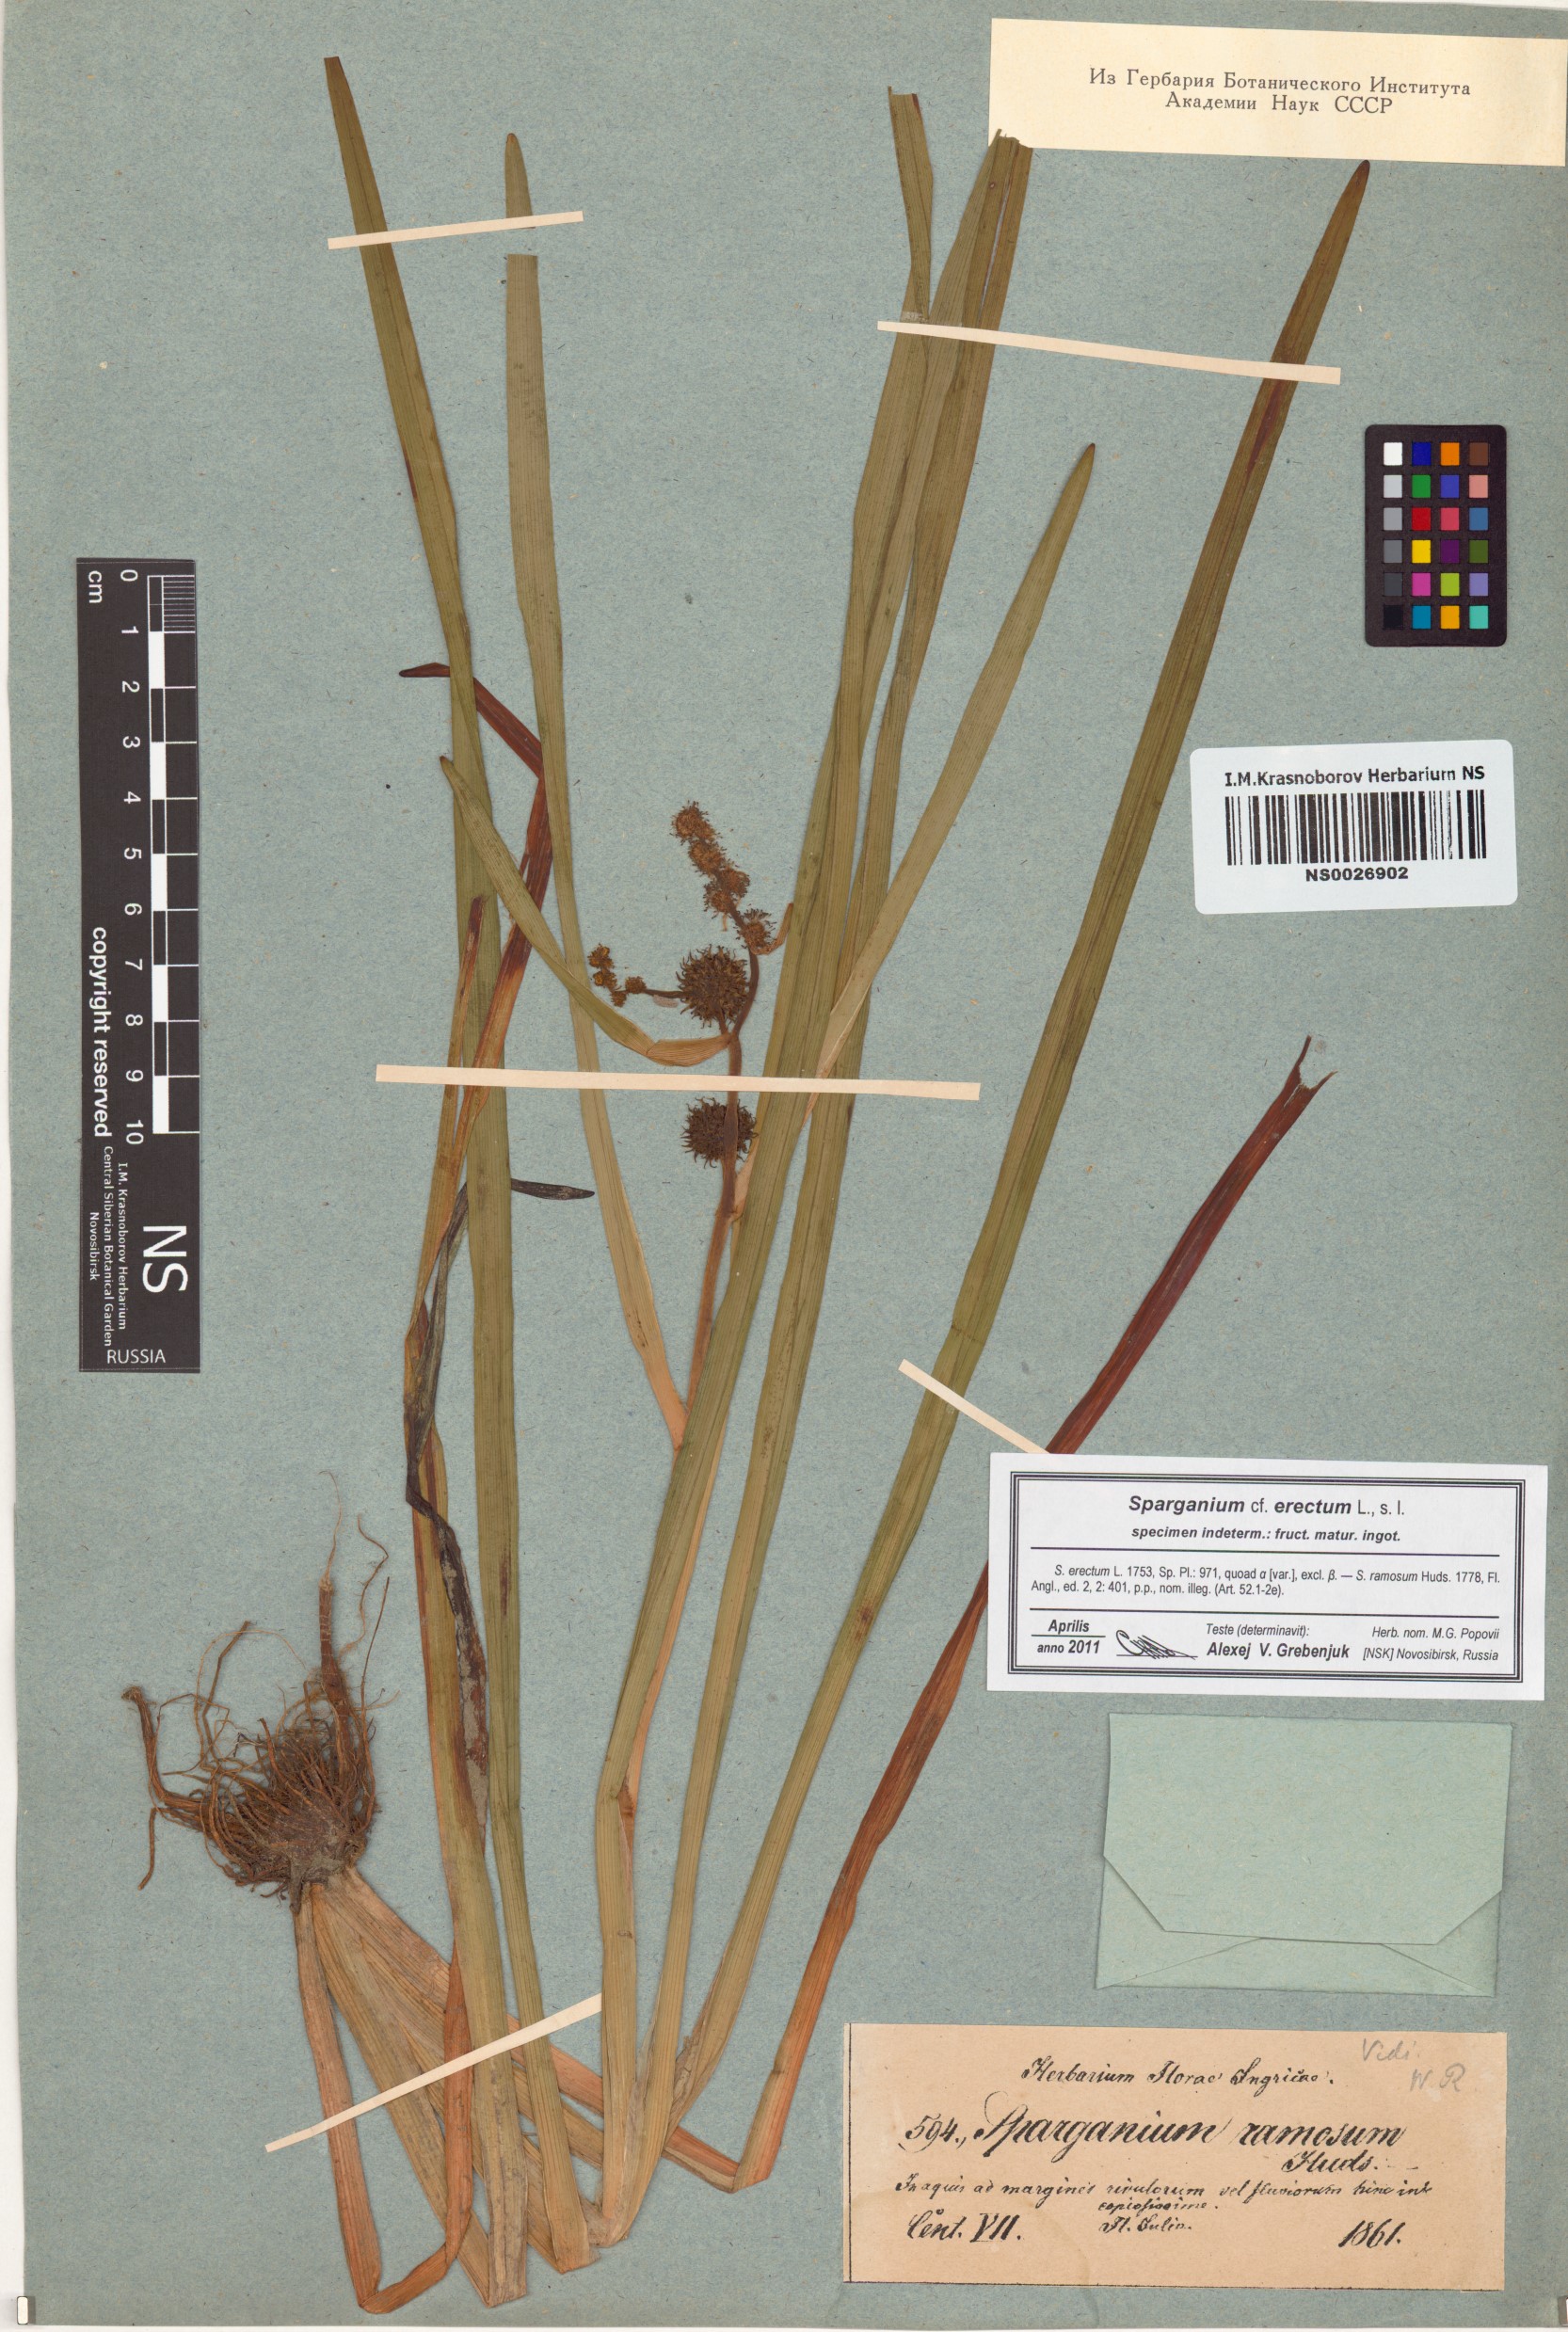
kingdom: Plantae
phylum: Tracheophyta
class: Liliopsida
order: Poales
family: Typhaceae
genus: Sparganium
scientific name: Sparganium erectum
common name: Branched bur-reed
